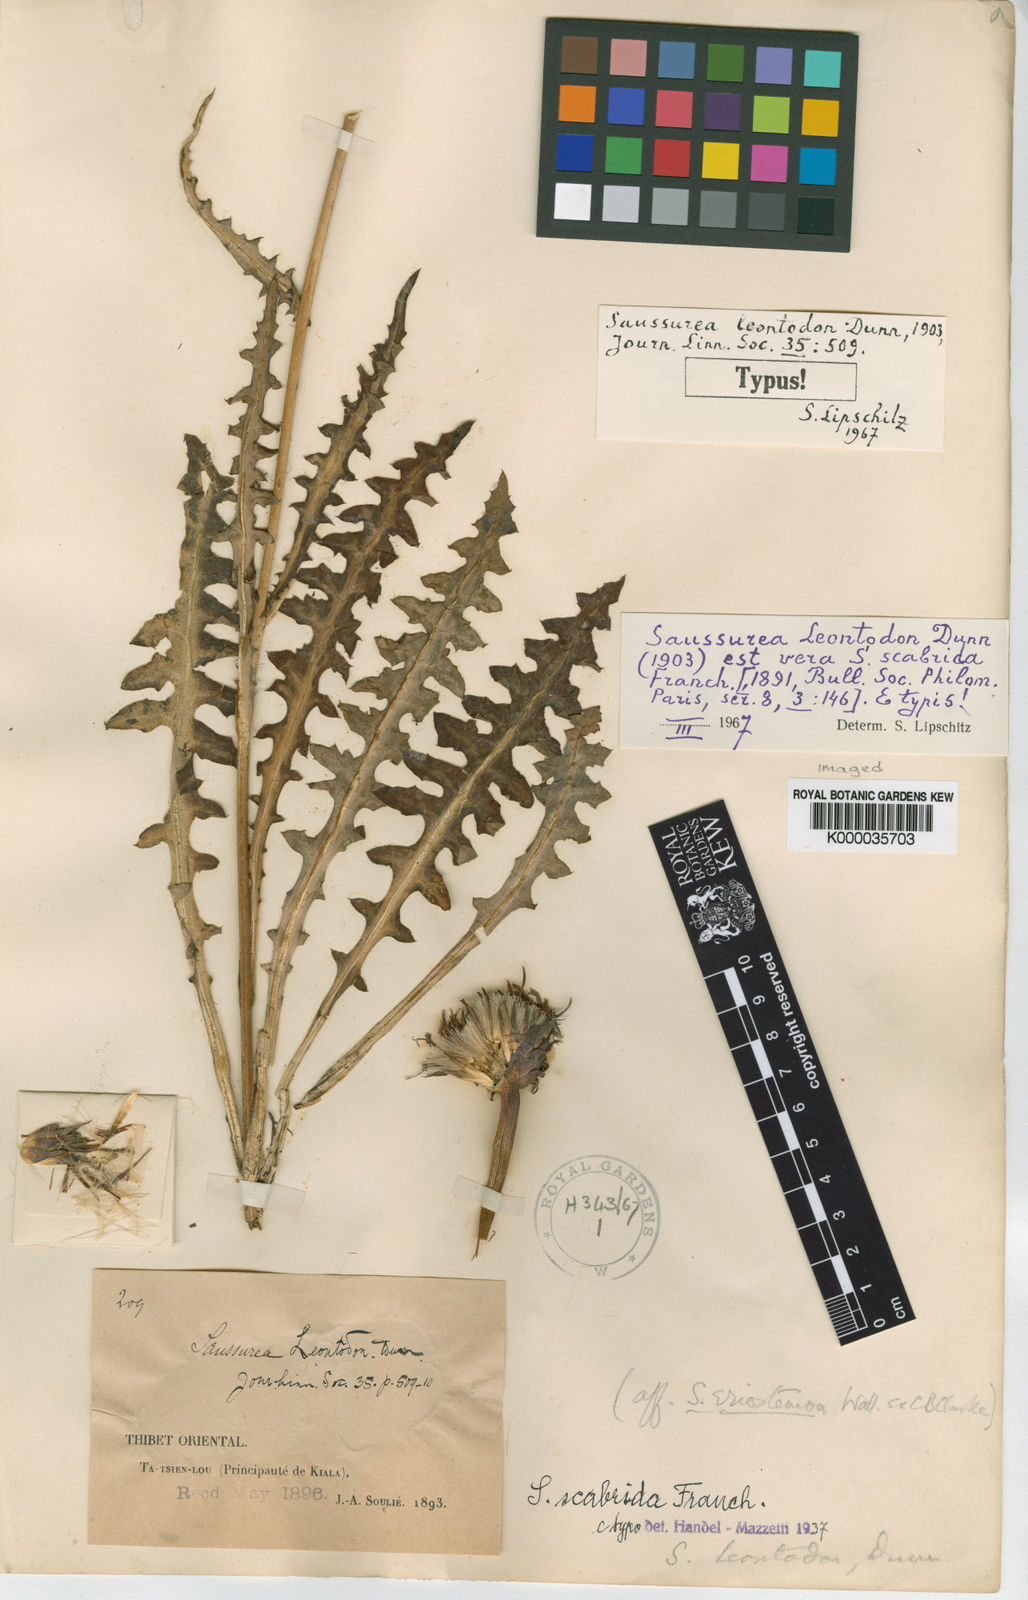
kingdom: Plantae
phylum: Tracheophyta
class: Magnoliopsida
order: Asterales
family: Asteraceae
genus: Saussurea
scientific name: Saussurea scabrida
